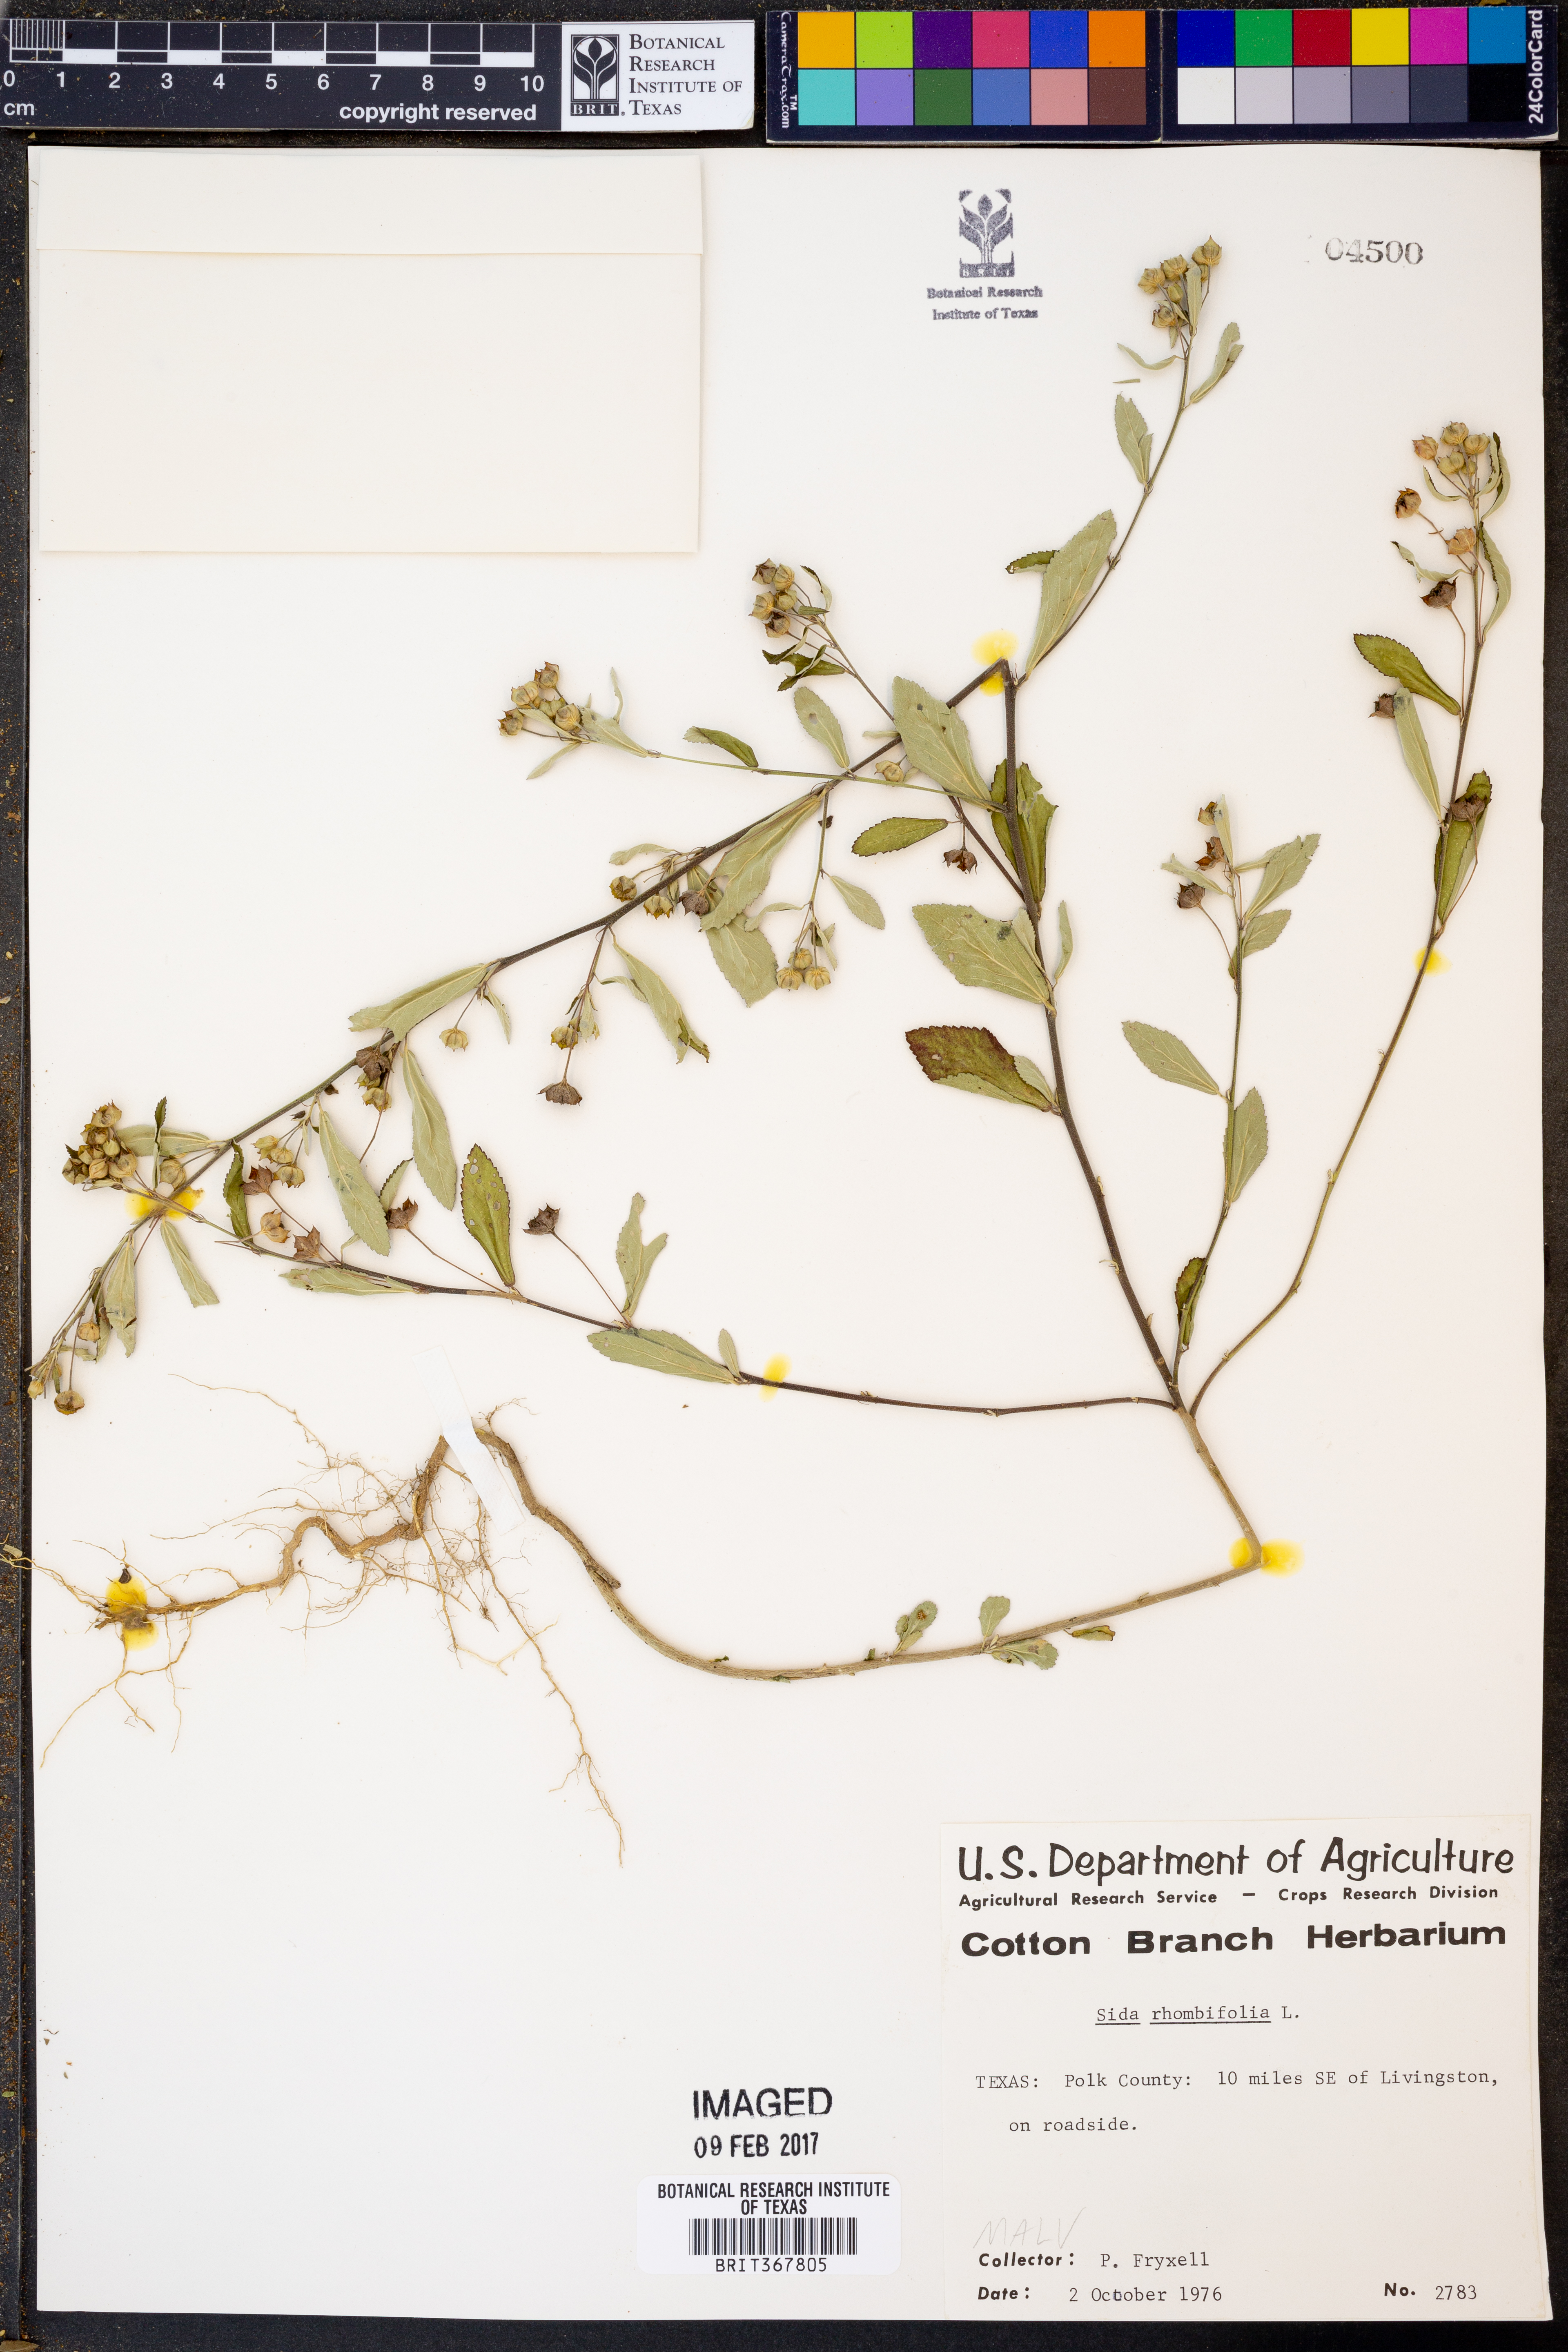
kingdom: Plantae
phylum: Tracheophyta
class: Magnoliopsida
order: Malvales
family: Malvaceae
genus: Sida
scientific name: Sida rhombifolia
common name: Queensland-hemp
